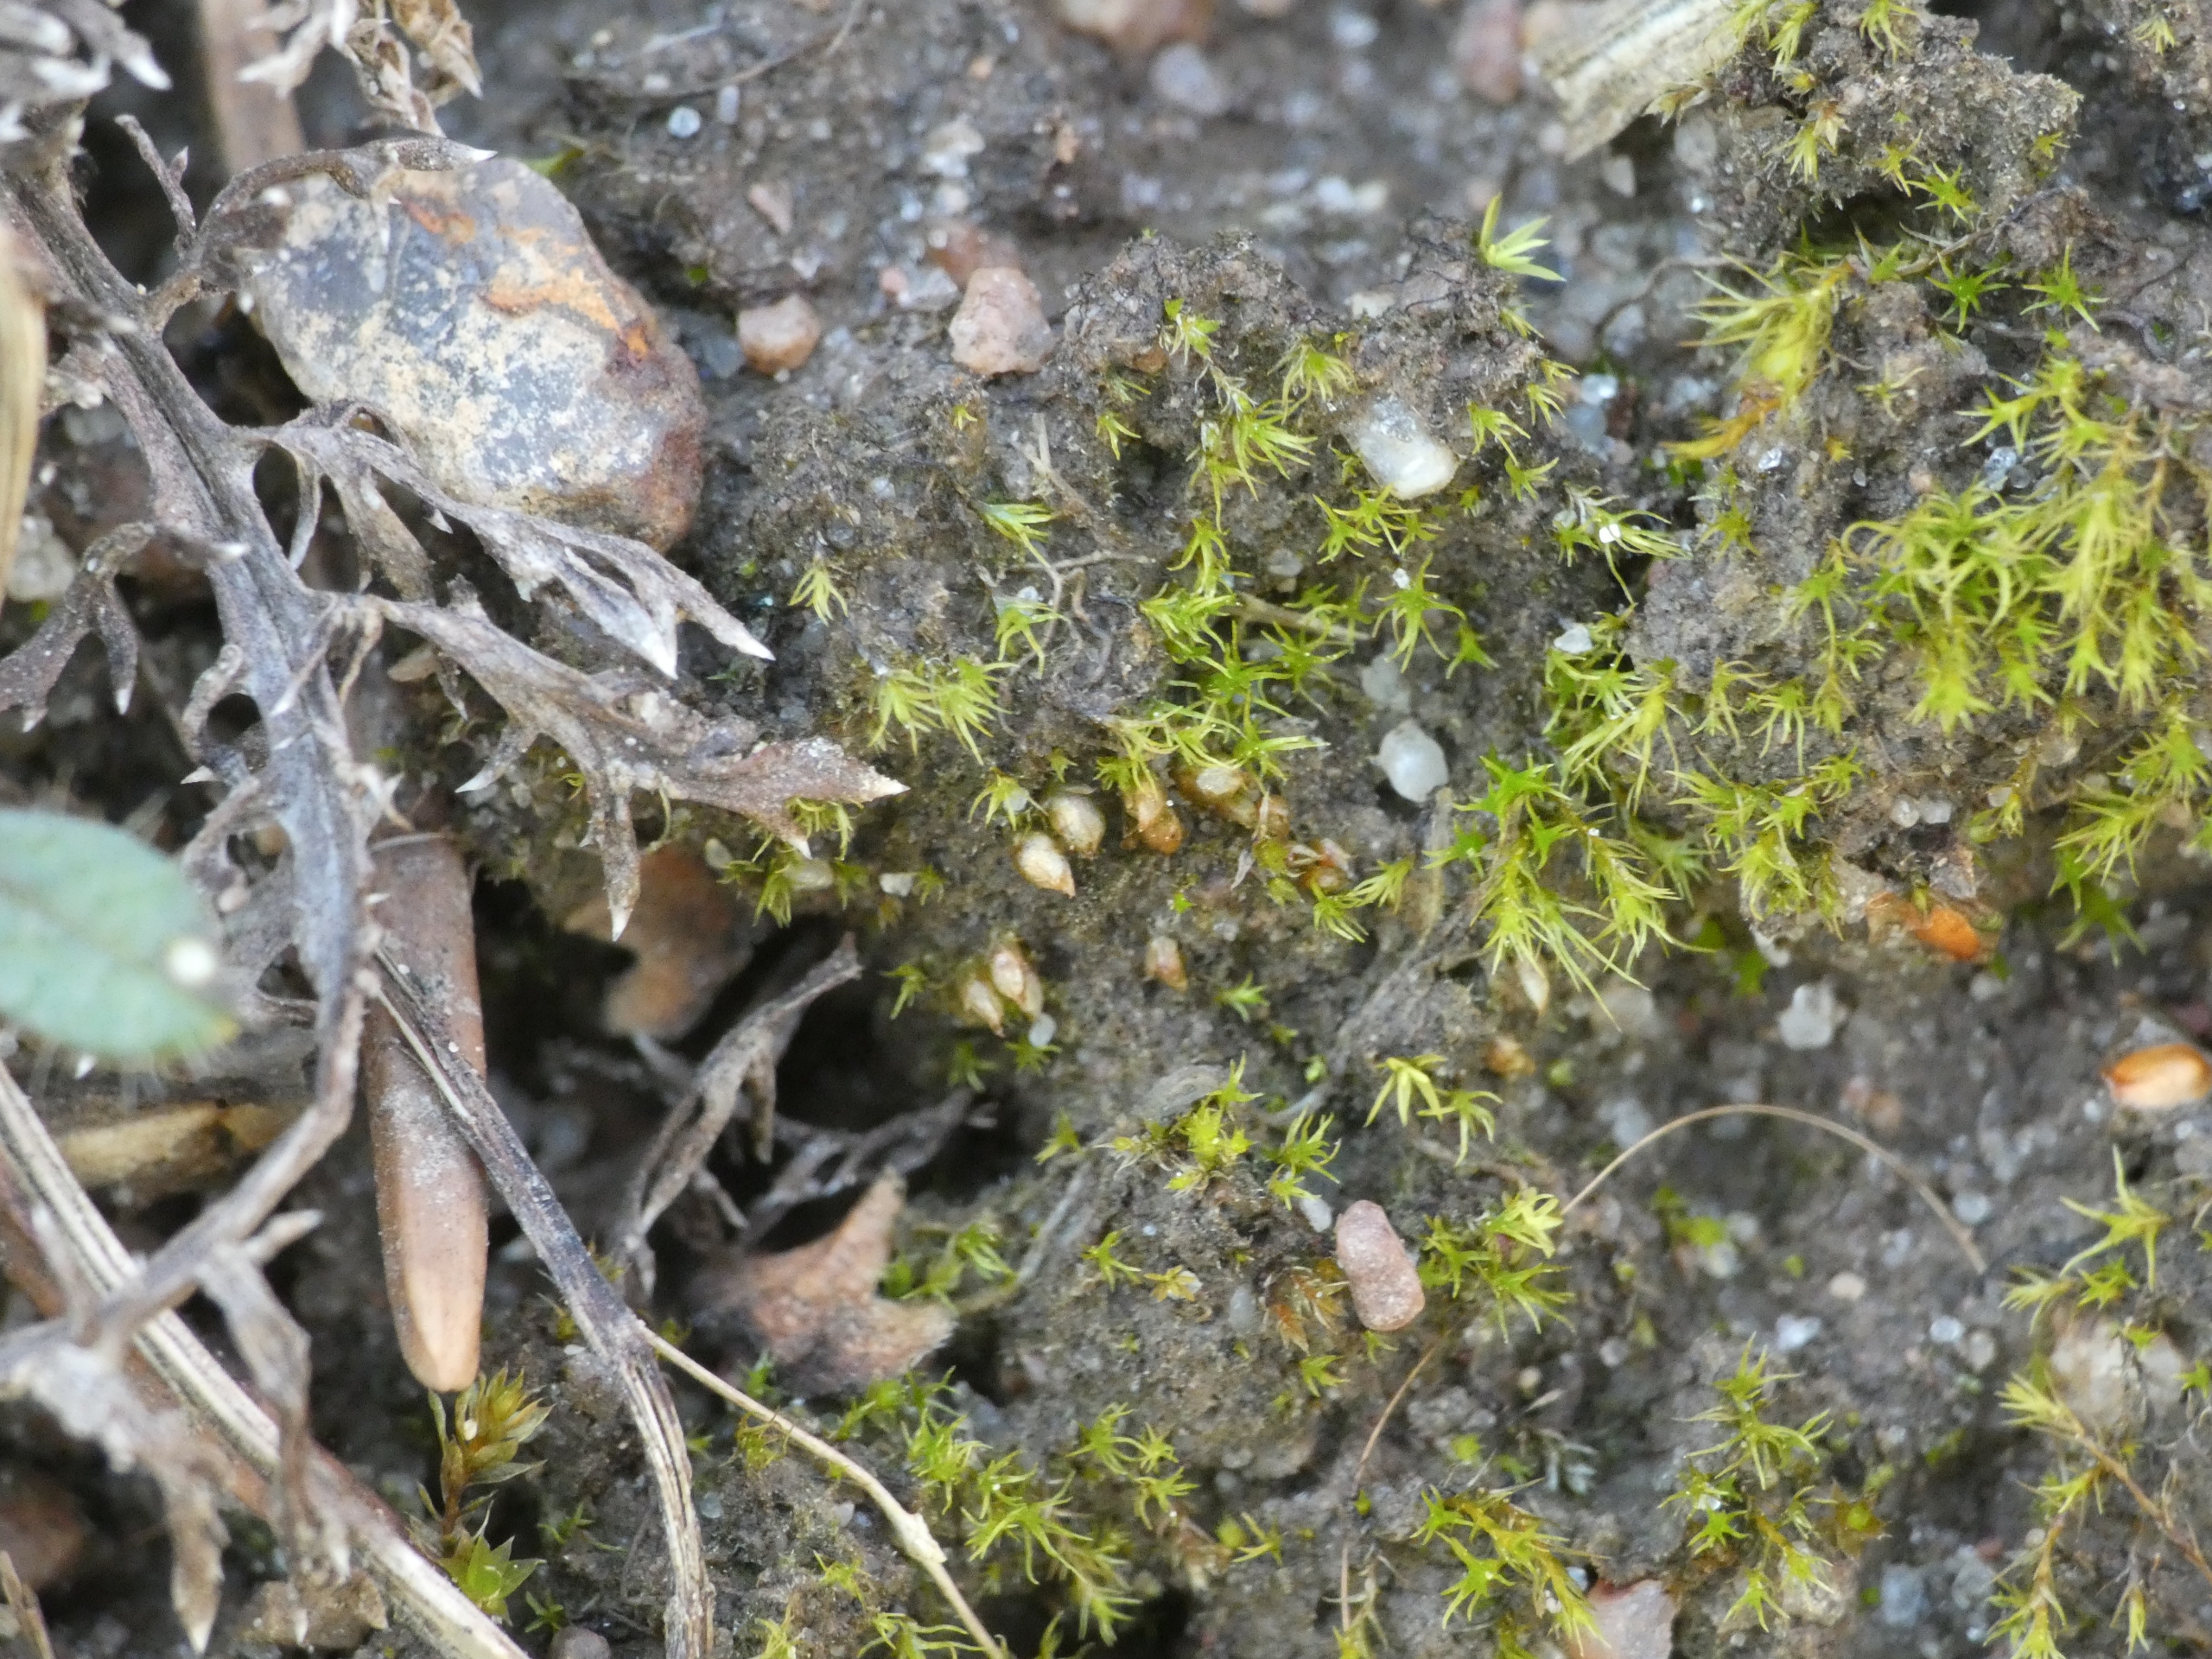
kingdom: Plantae
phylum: Bryophyta
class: Bryopsida
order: Pottiales
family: Pottiaceae
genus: Acaulon
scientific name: Acaulon muticum
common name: Siddende ægmos
